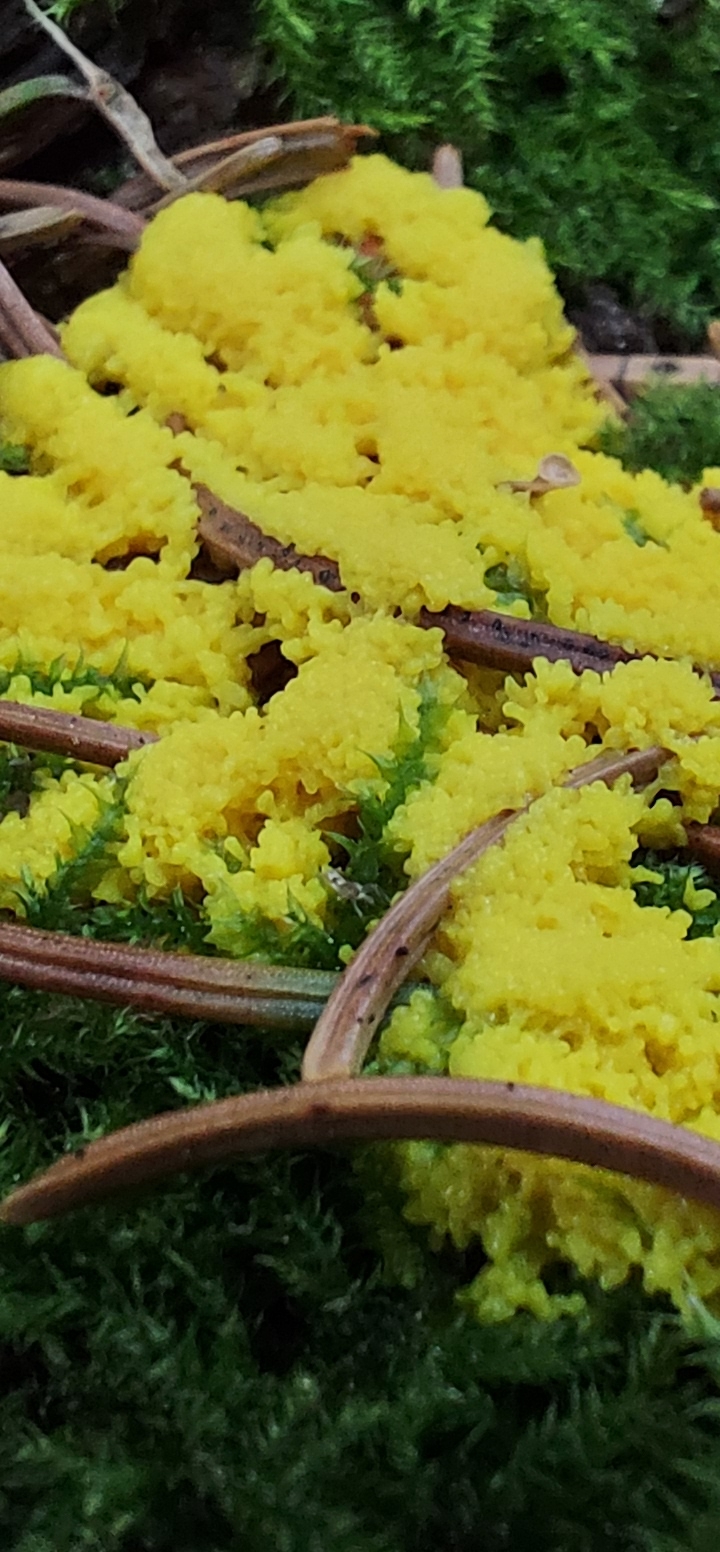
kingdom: Protozoa
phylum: Mycetozoa
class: Myxomycetes
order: Physarales
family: Physaraceae
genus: Fuligo
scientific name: Fuligo septica
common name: gul troldsmør
